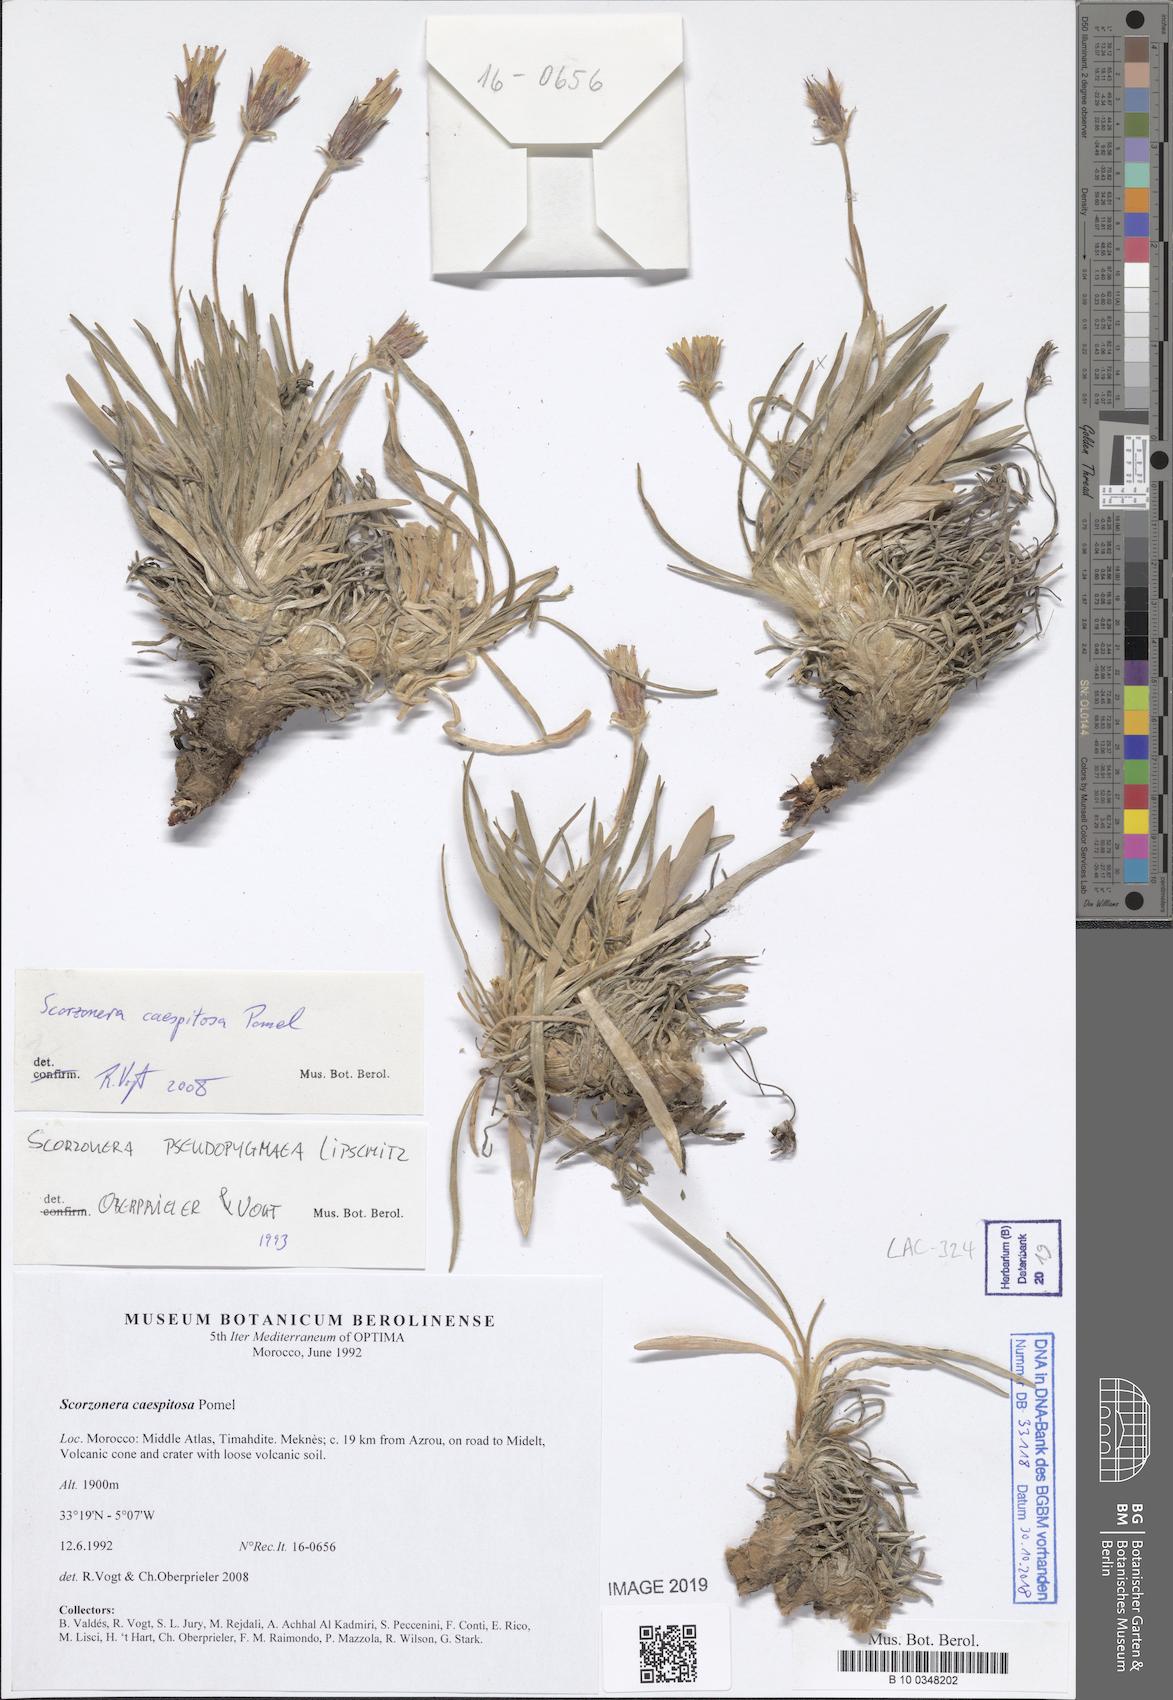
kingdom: Plantae
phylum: Tracheophyta
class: Magnoliopsida
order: Asterales
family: Asteraceae
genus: Gelasia
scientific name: Gelasia caespitosa
